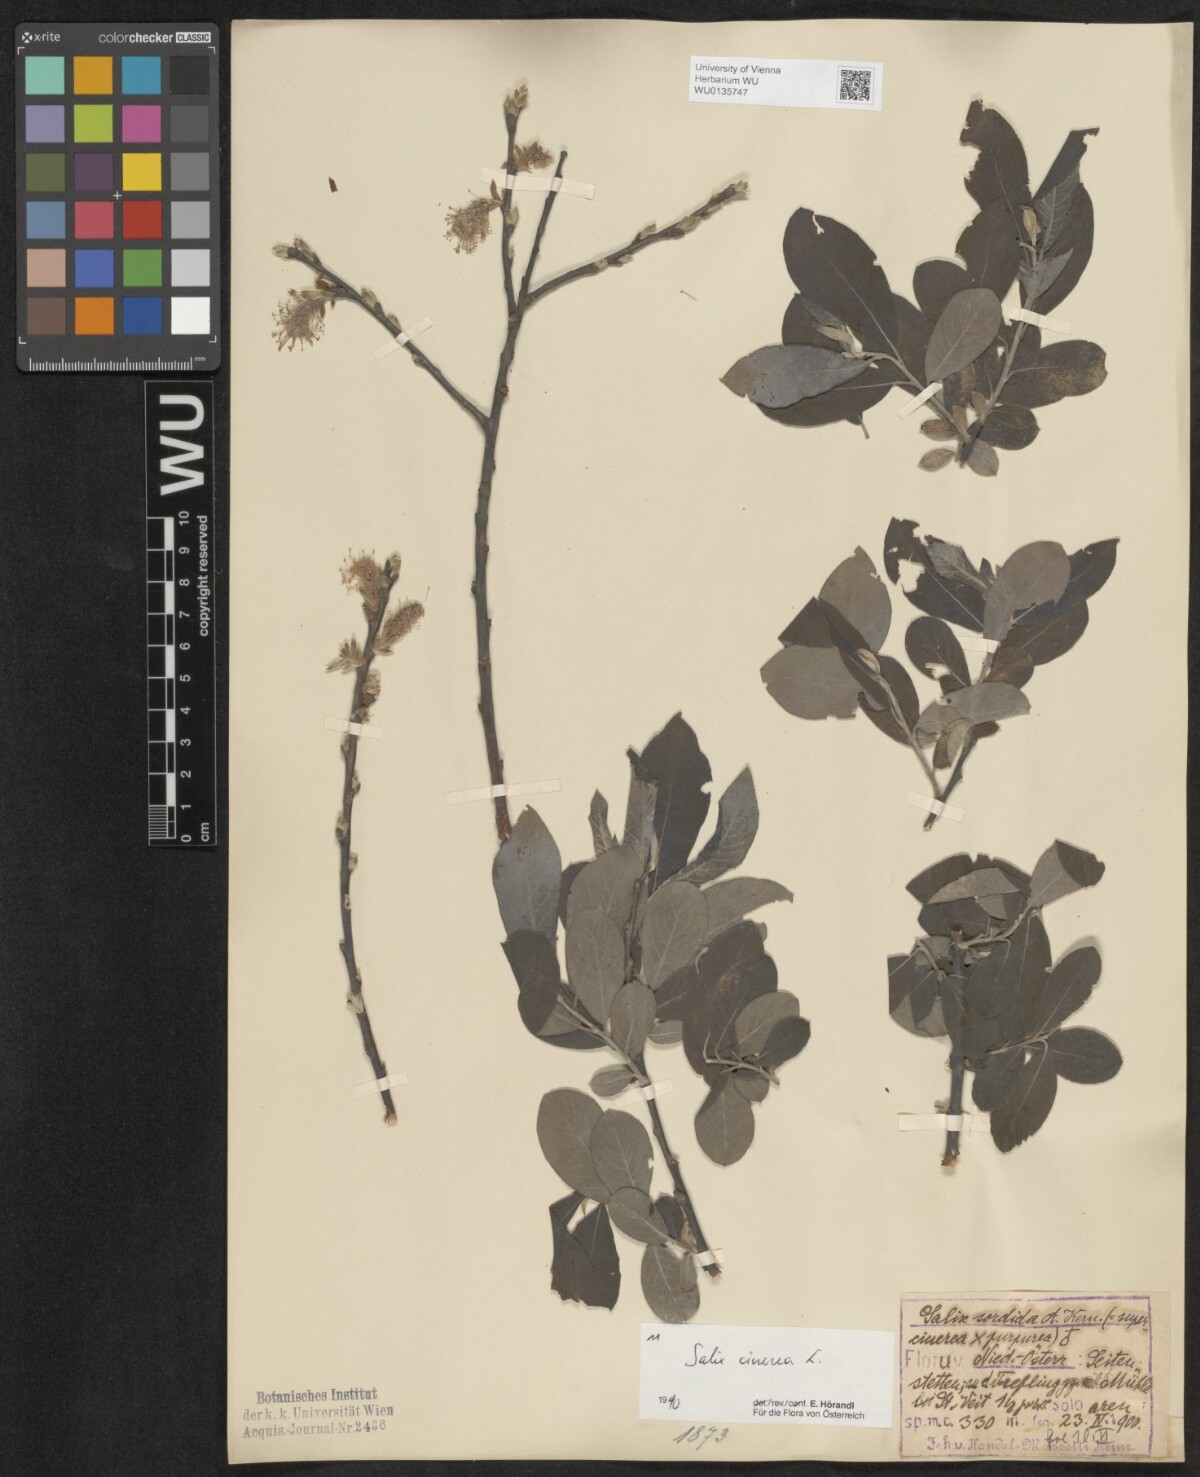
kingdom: Plantae
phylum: Tracheophyta
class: Magnoliopsida
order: Malpighiales
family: Salicaceae
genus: Salix
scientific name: Salix cinerea
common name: Common sallow
